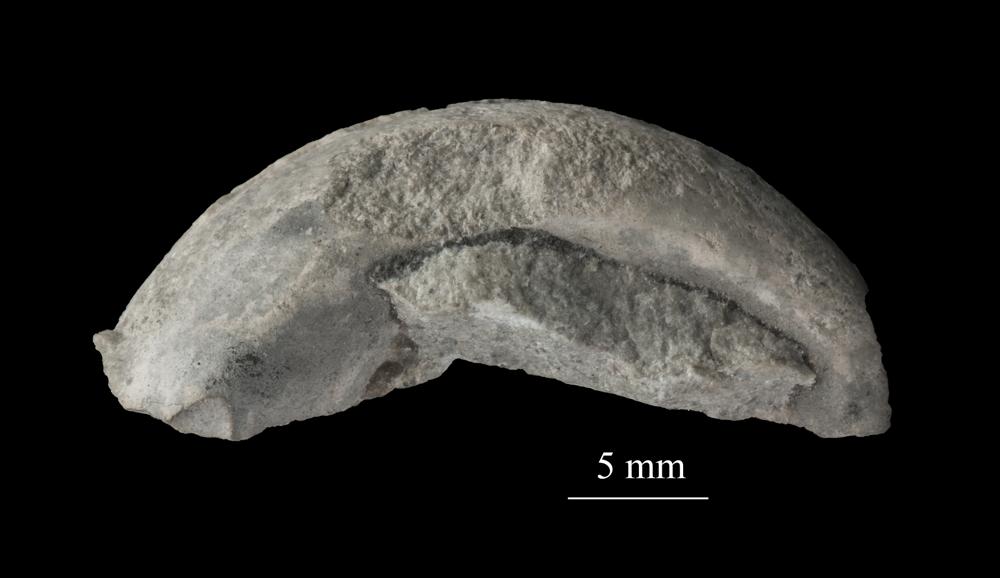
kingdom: Animalia
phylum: Mollusca
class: Gastropoda
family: Euomphalidae
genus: Ecculiomphalus
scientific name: Ecculiomphalus
